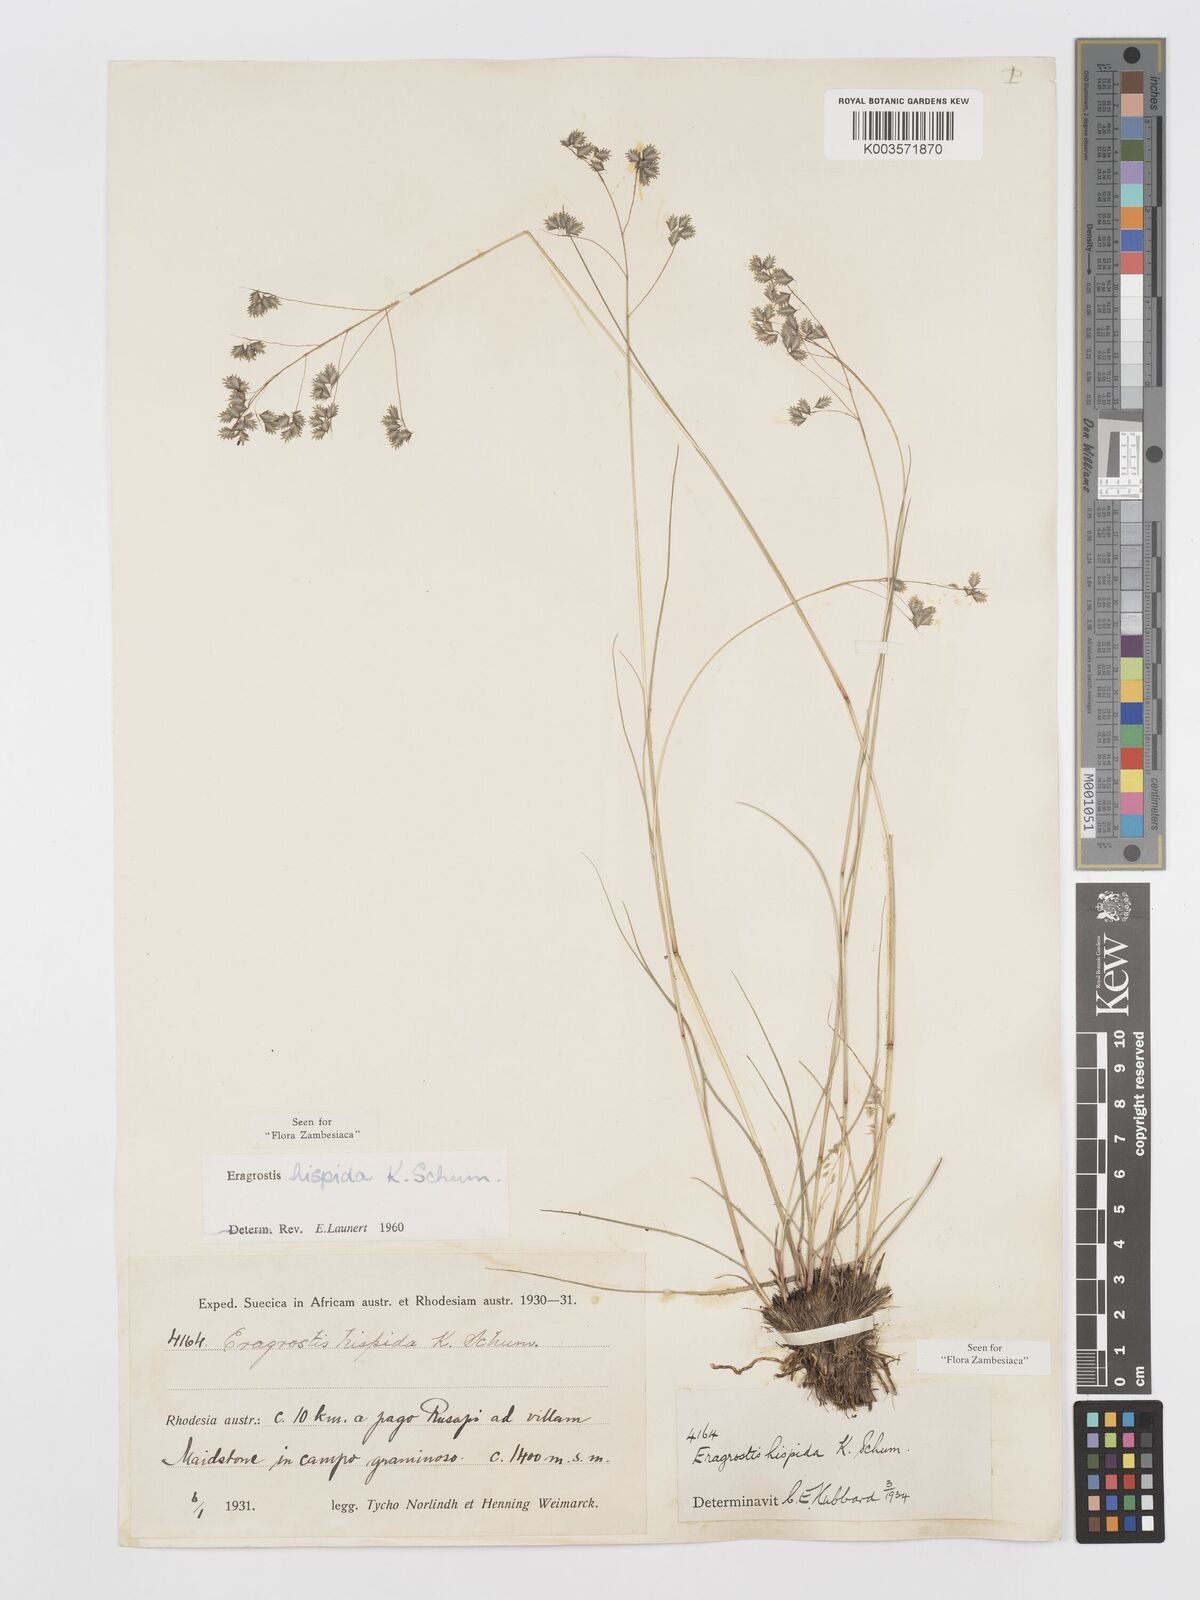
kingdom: Plantae
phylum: Tracheophyta
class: Liliopsida
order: Poales
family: Poaceae
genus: Eragrostis
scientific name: Eragrostis hispida
